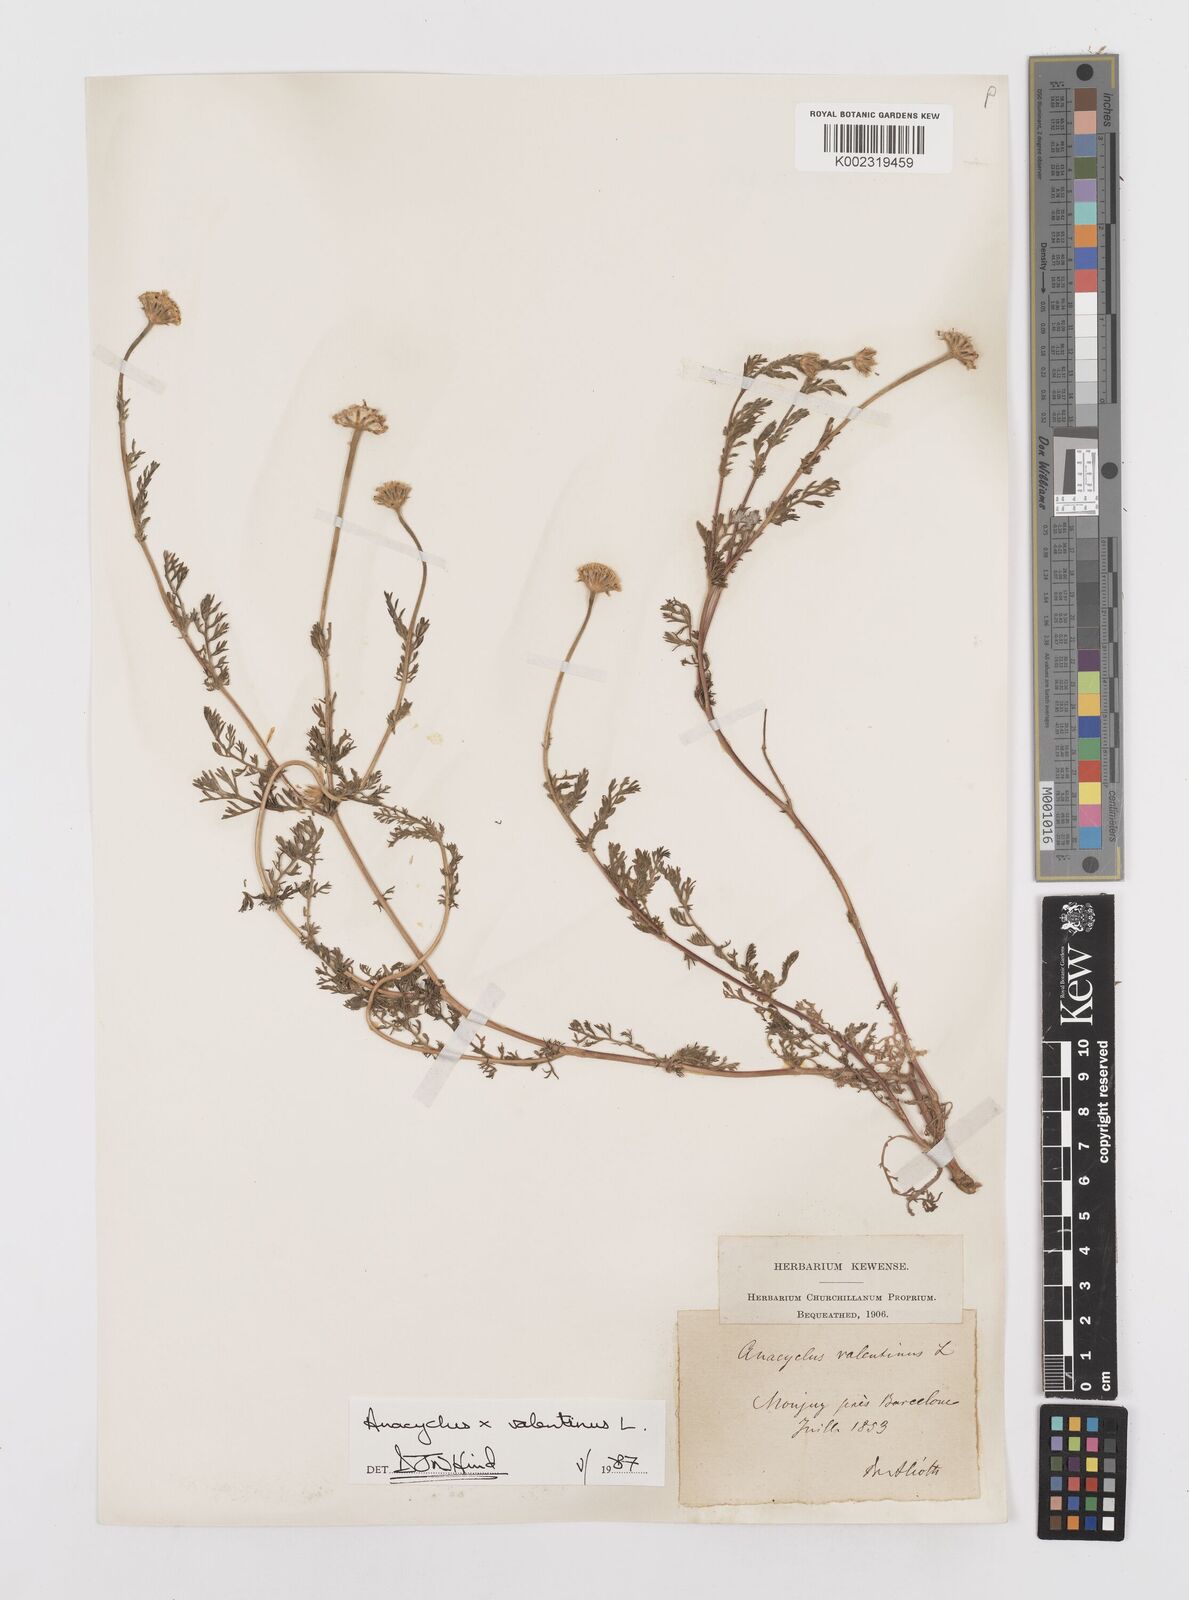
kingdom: Plantae
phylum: Tracheophyta
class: Magnoliopsida
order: Asterales
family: Asteraceae
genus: Anacyclus
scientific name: Anacyclus valentinus
